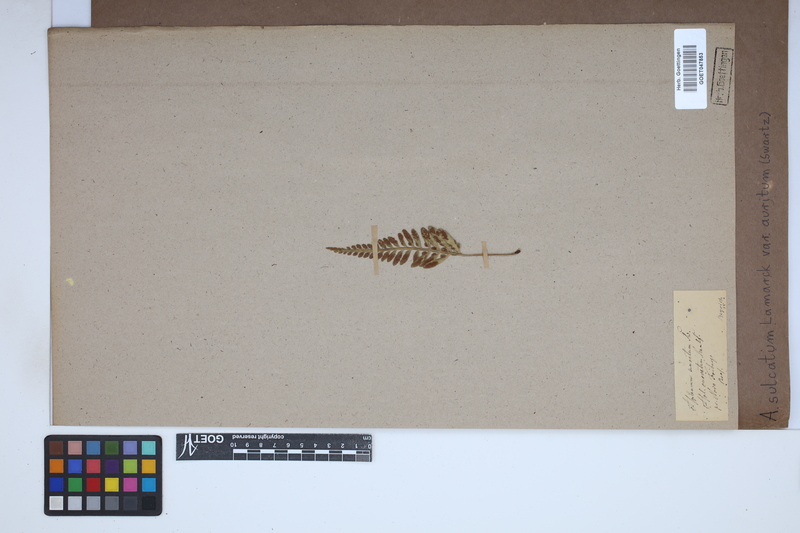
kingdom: Plantae
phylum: Tracheophyta
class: Polypodiopsida
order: Polypodiales
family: Aspleniaceae
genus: Asplenium
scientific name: Asplenium auritum
